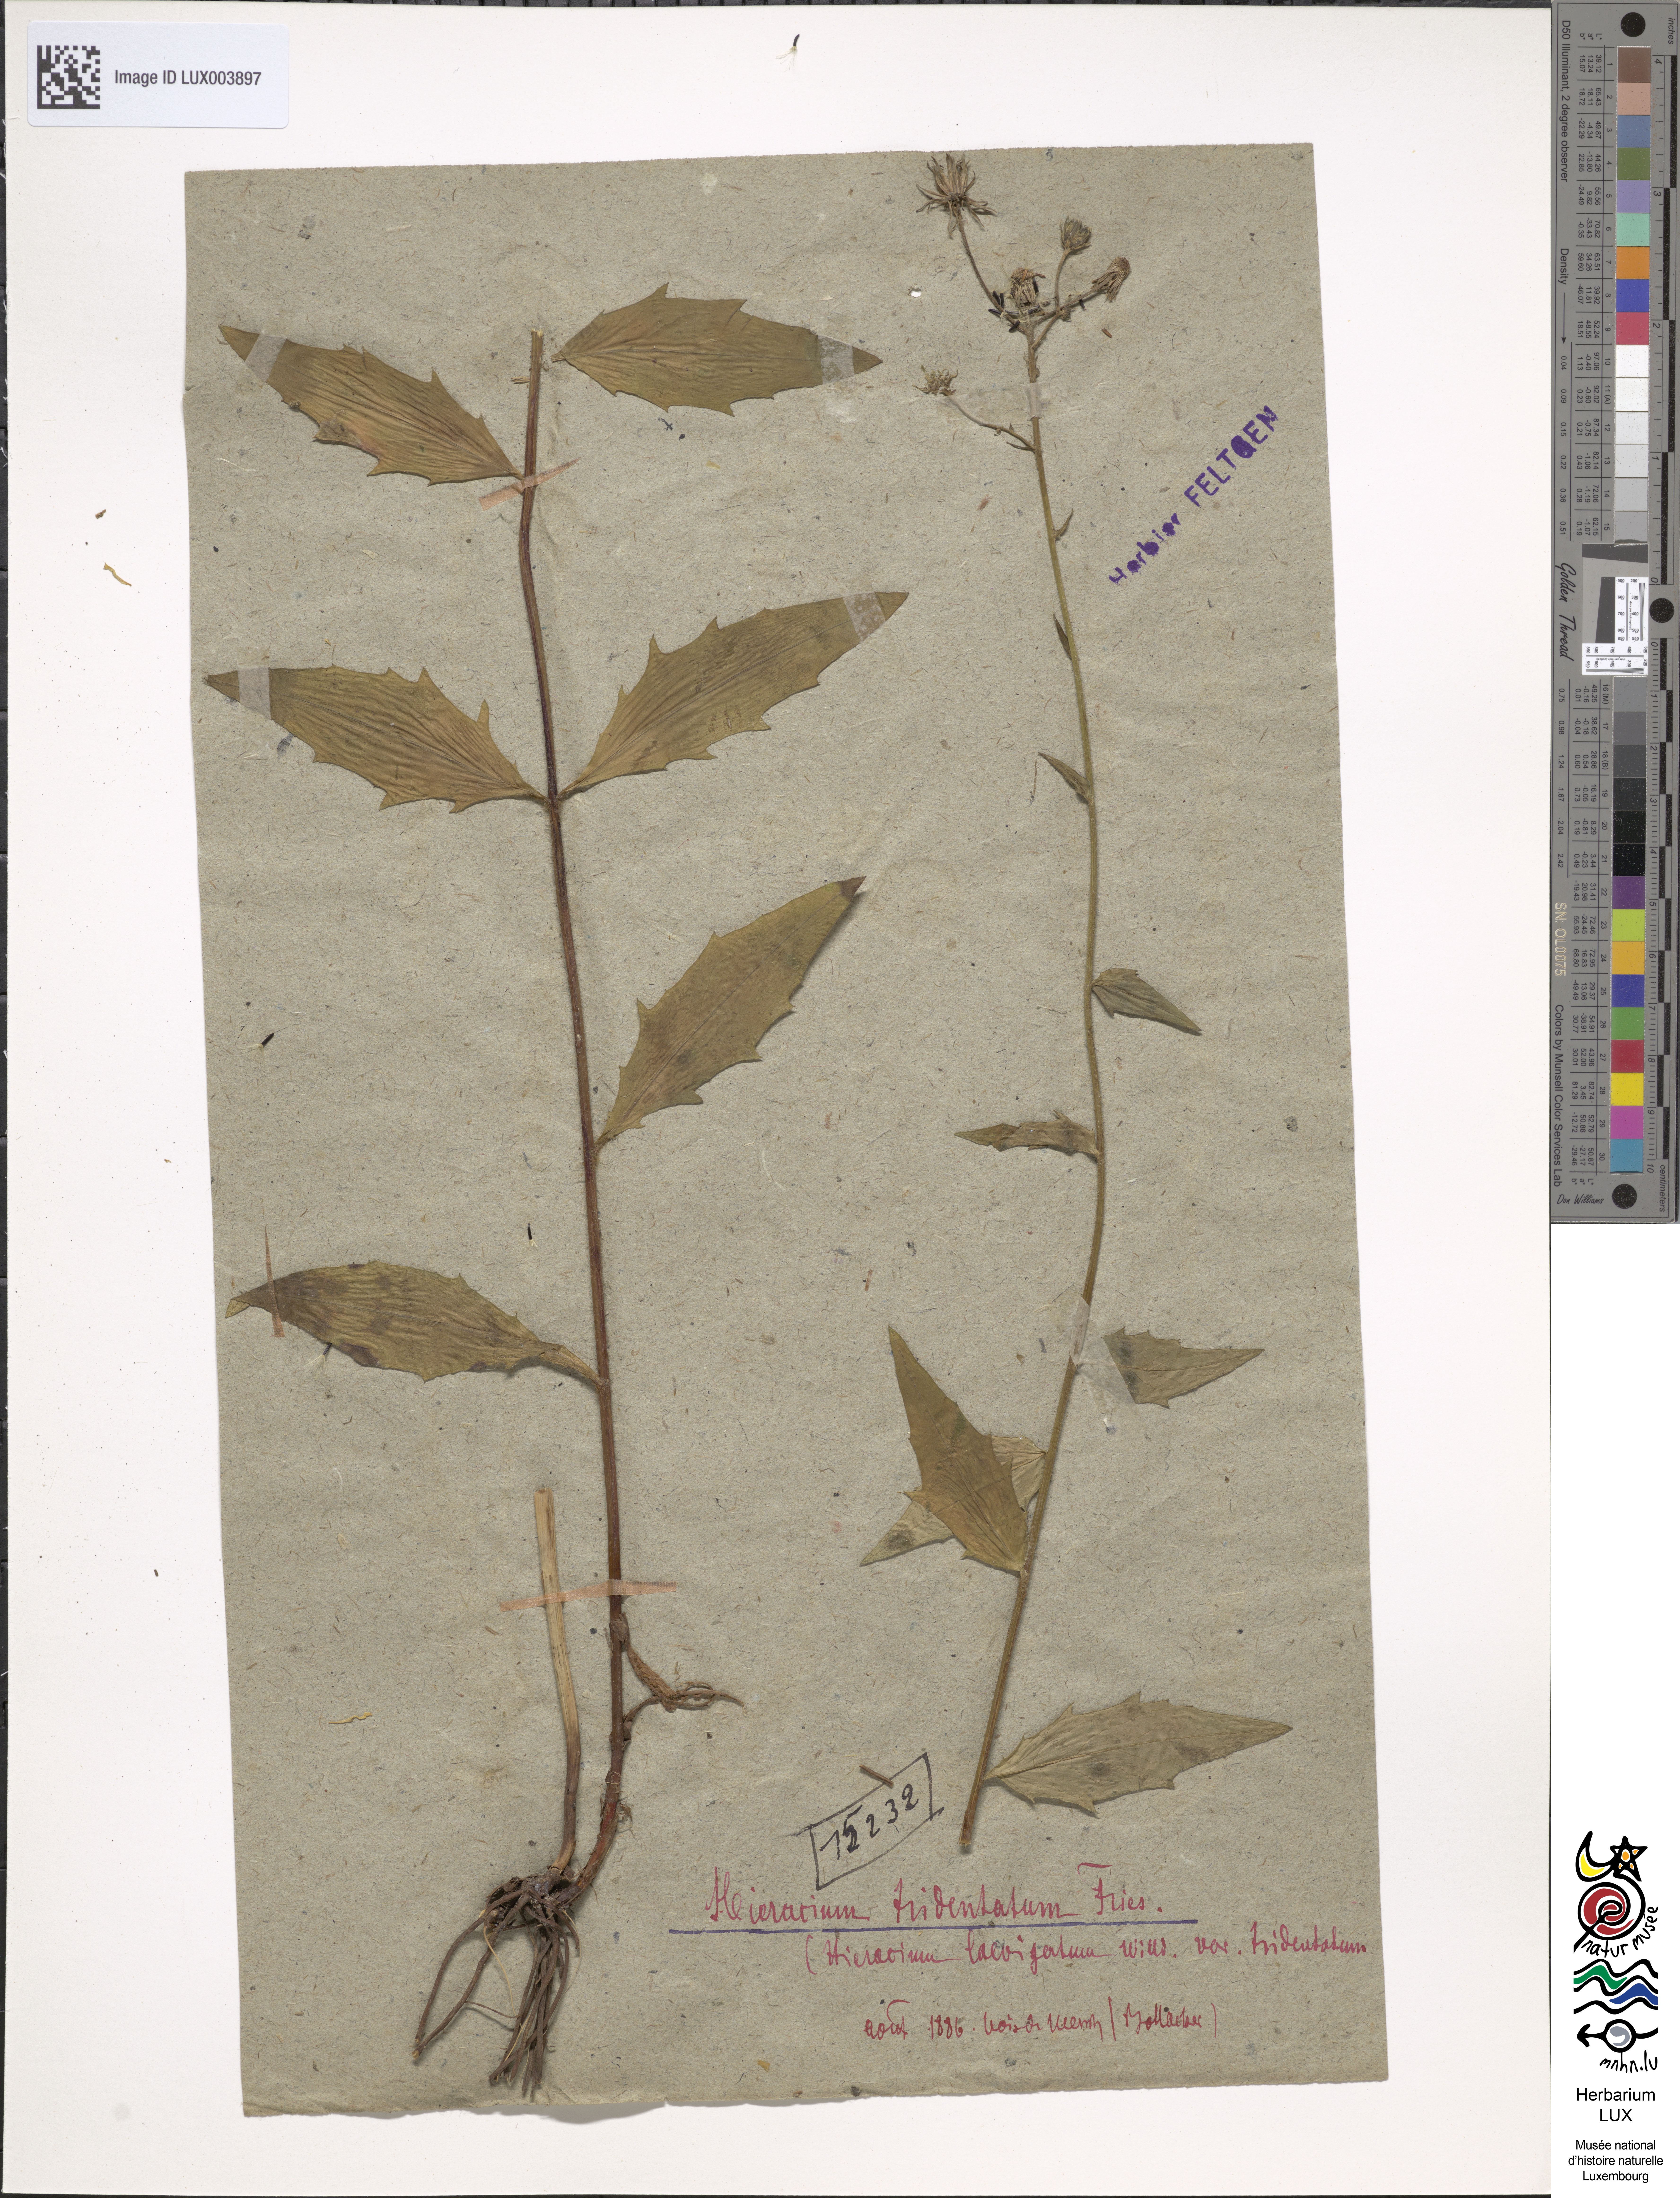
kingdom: Plantae
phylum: Tracheophyta
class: Magnoliopsida
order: Asterales
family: Asteraceae
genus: Hieracium
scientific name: Hieracium laevigatum
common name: Smooth hawkweed
